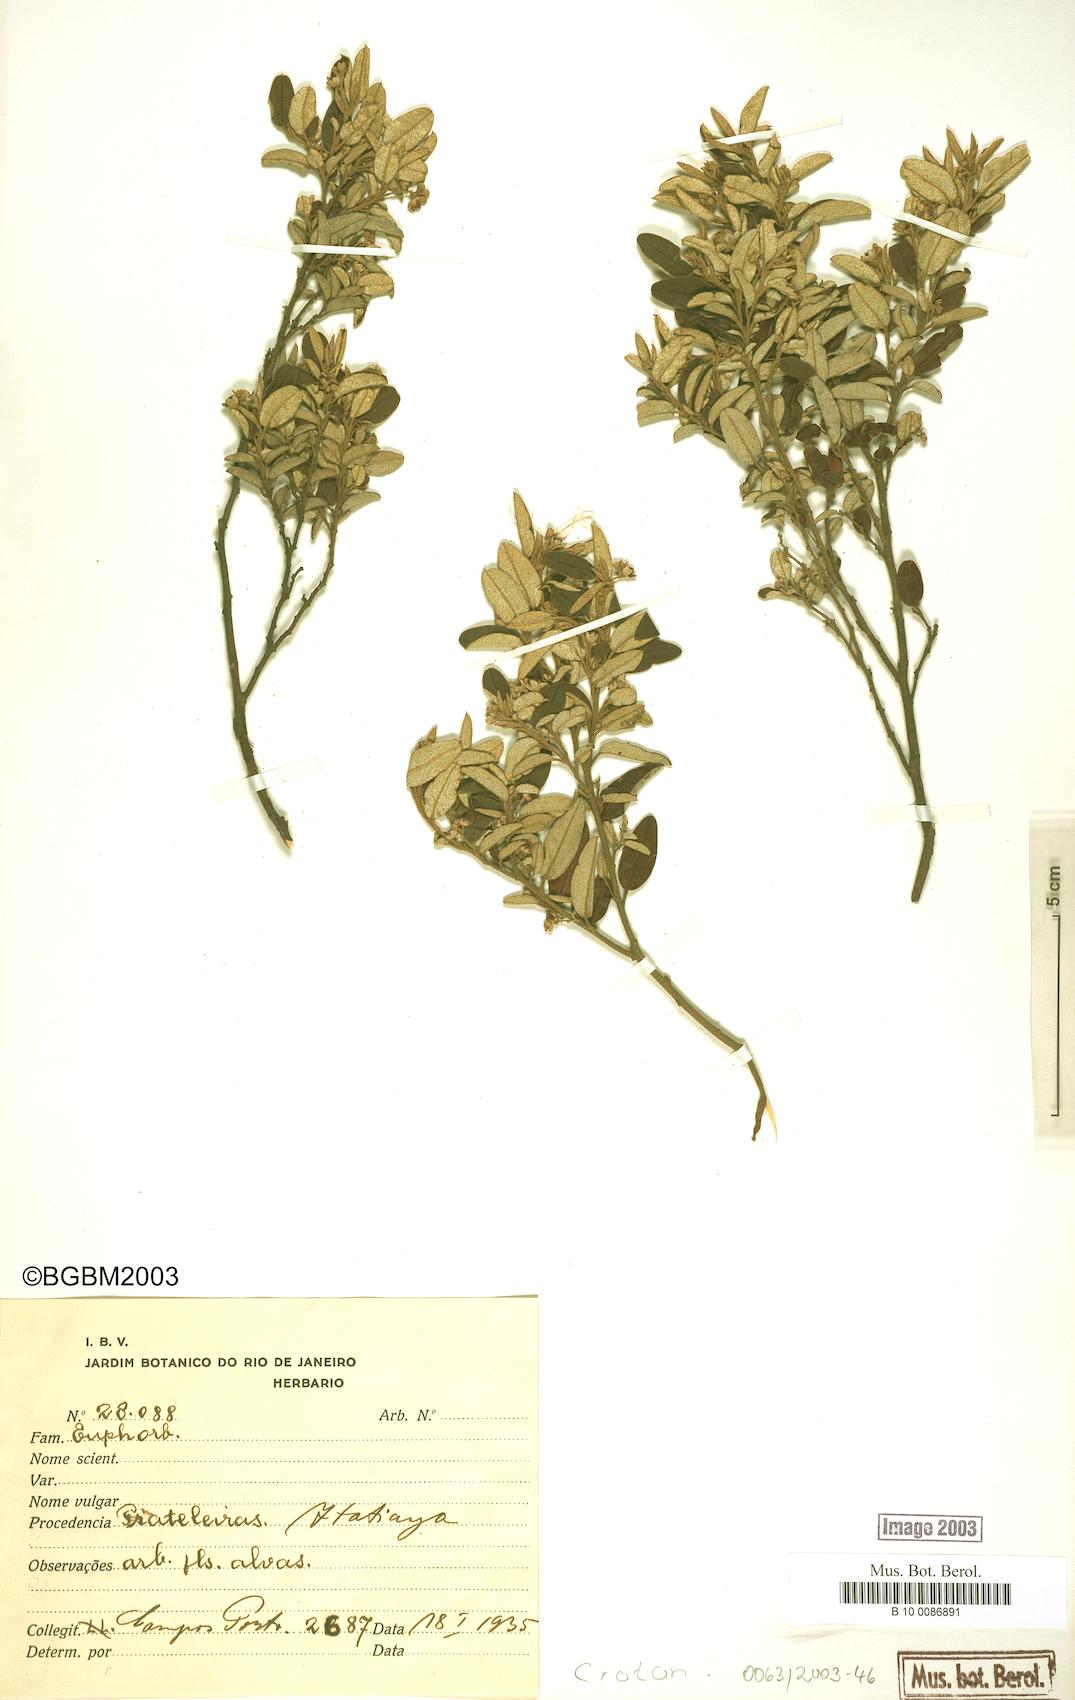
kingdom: Plantae
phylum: Tracheophyta
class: Magnoliopsida
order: Malpighiales
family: Euphorbiaceae
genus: Croton
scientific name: Croton
